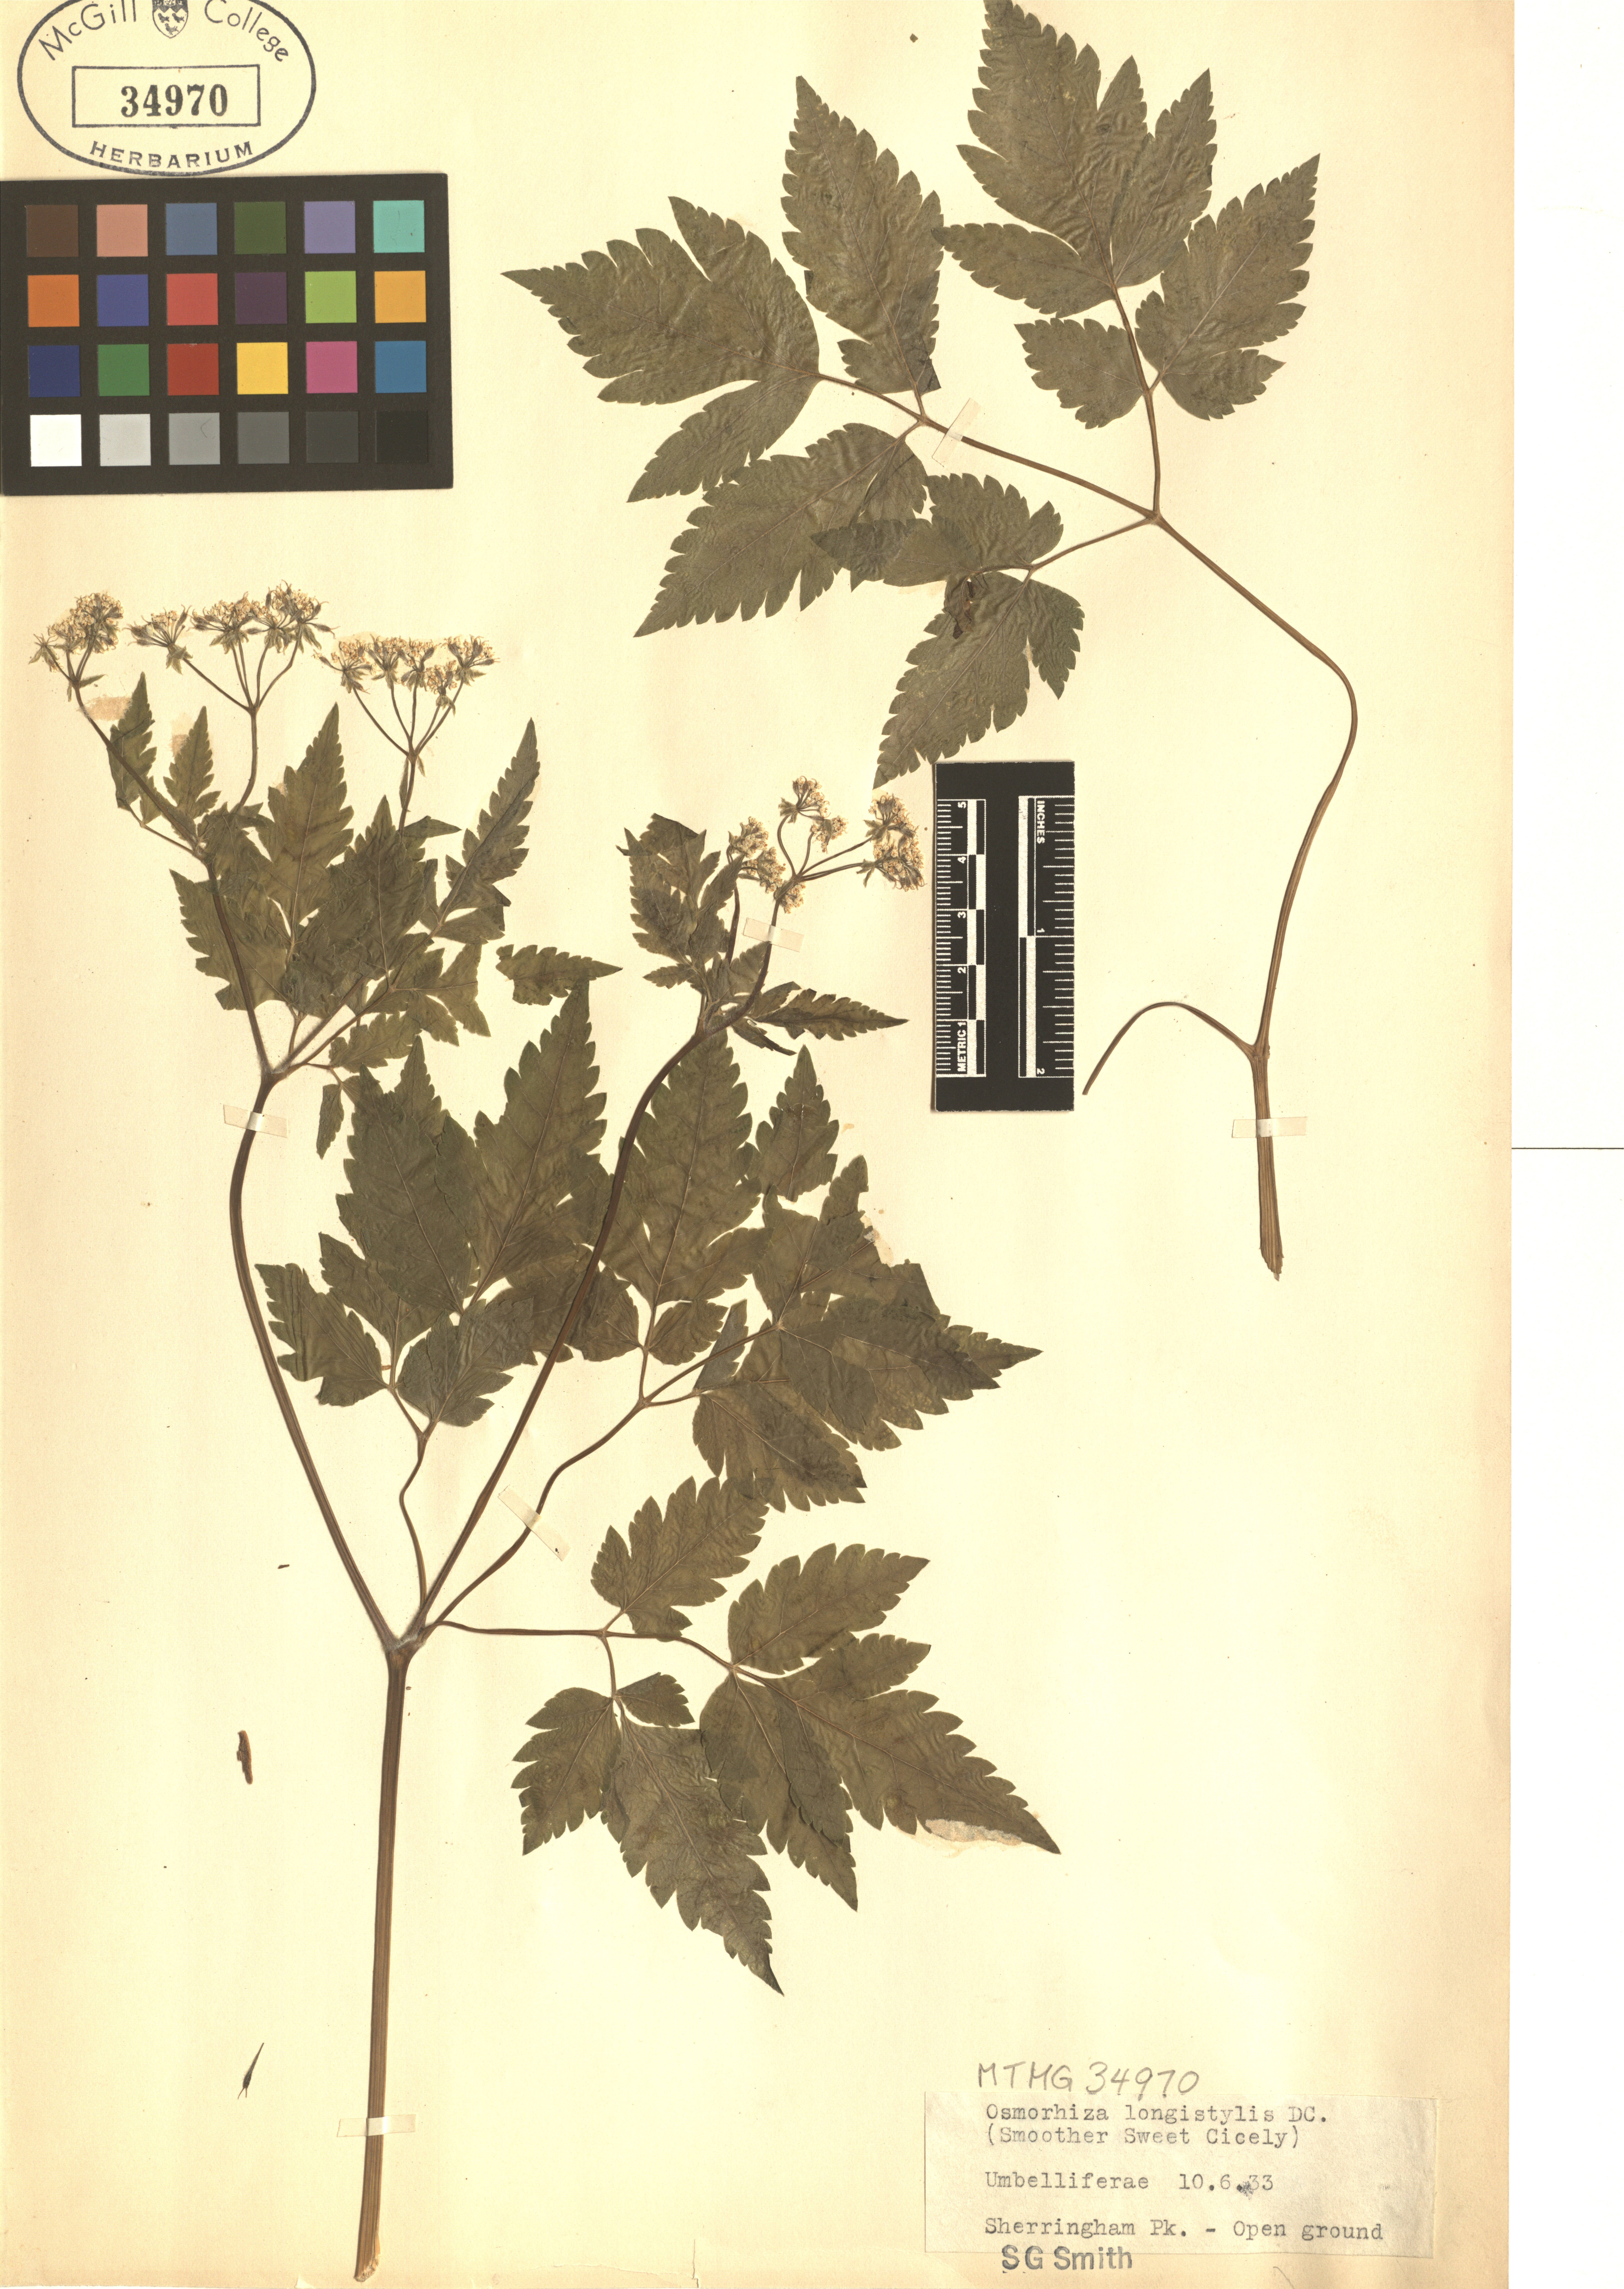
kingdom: Plantae
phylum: Tracheophyta
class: Magnoliopsida
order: Apiales
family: Apiaceae
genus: Osmorhiza
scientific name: Osmorhiza longistylis
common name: Smooth sweet cicely
